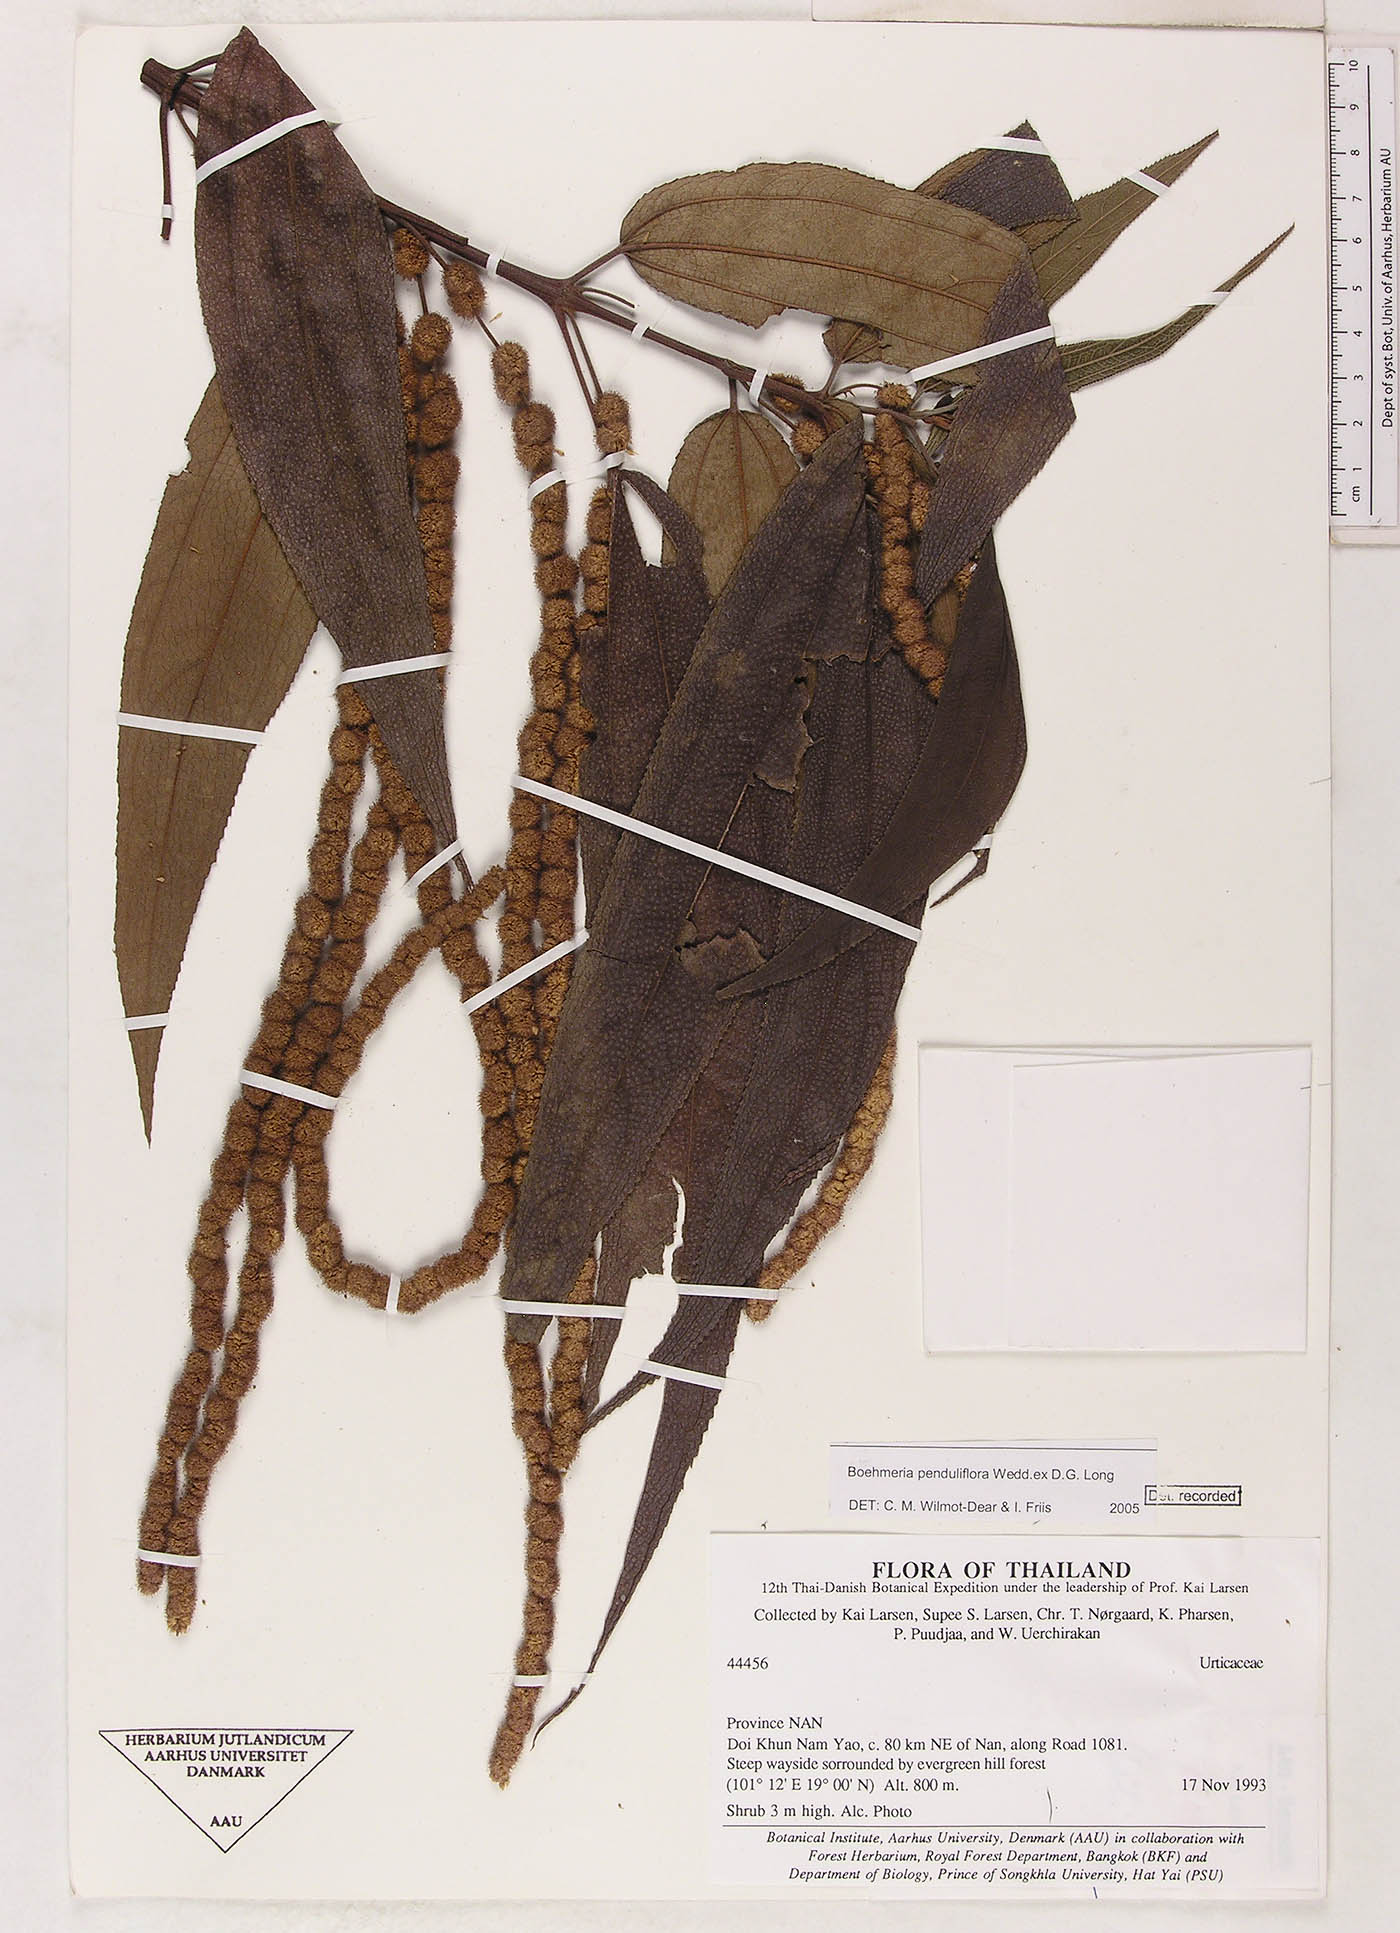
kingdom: Plantae
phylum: Tracheophyta
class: Magnoliopsida
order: Rosales
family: Urticaceae
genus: Boehmeria
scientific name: Boehmeria penduliflora
